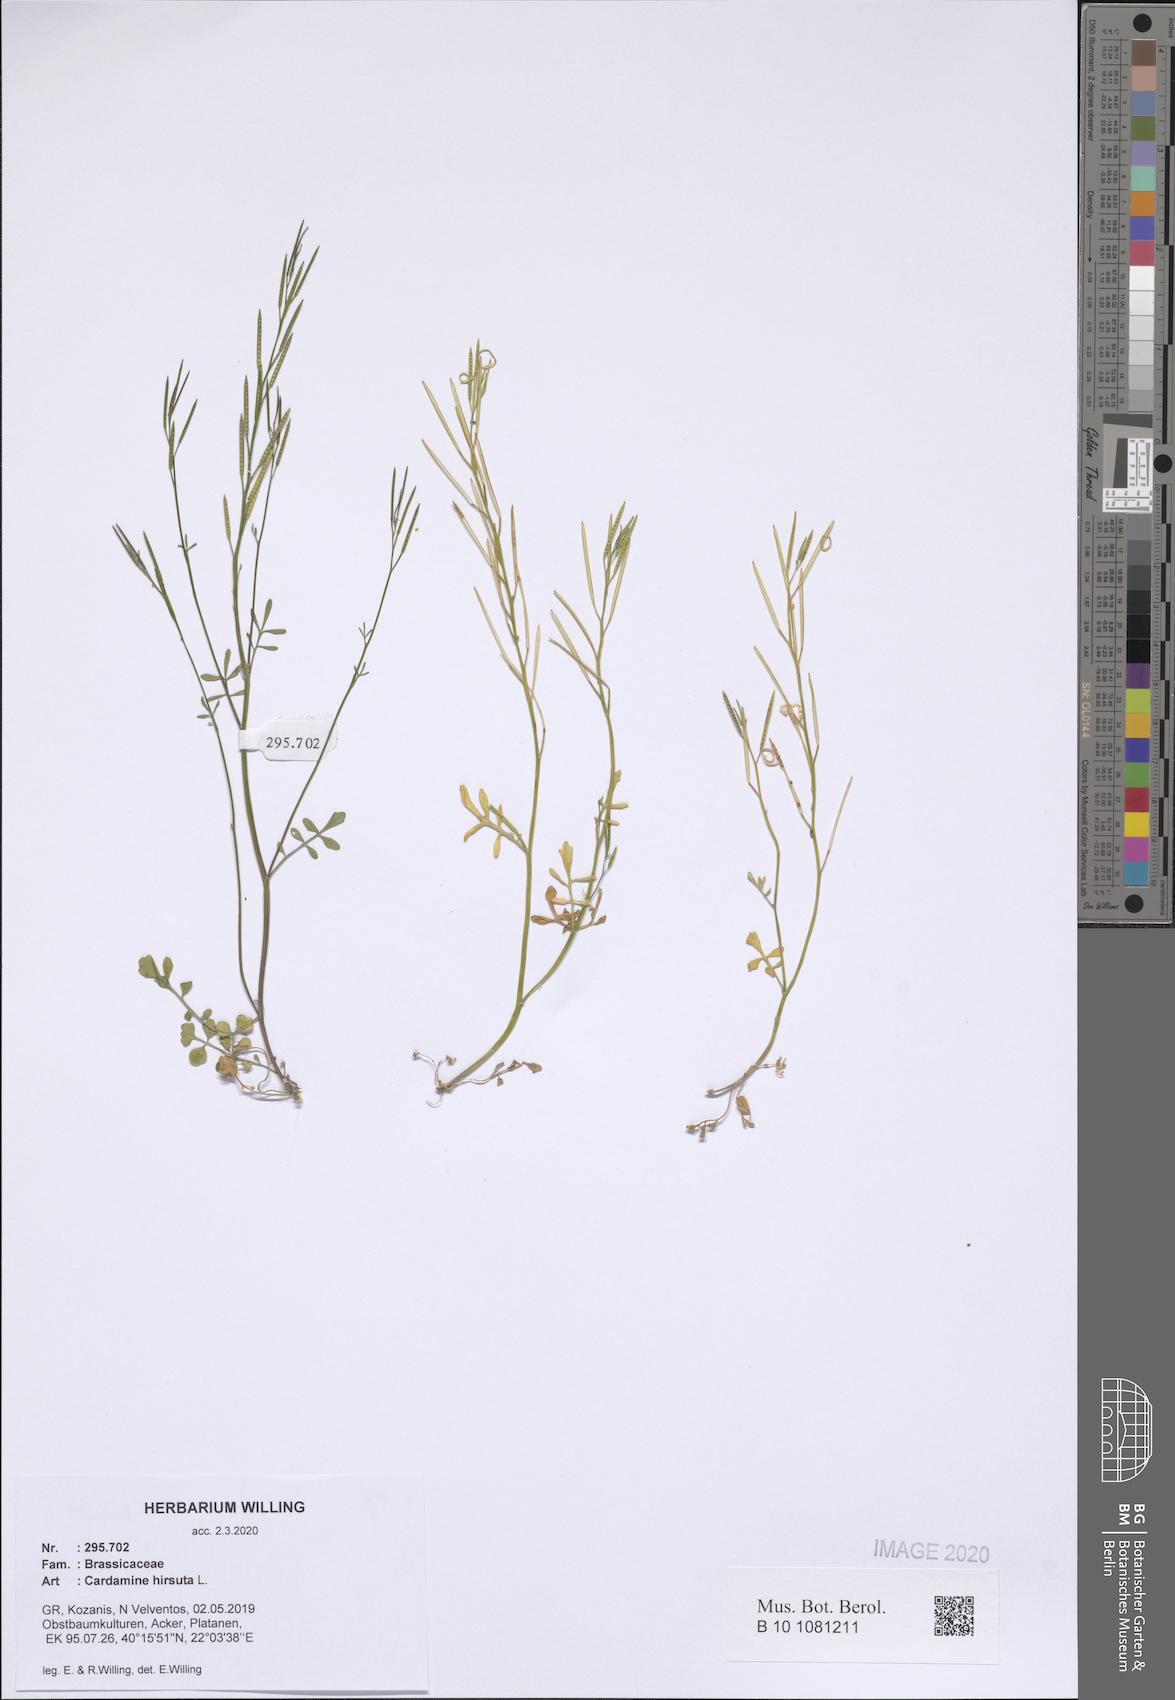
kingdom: Plantae
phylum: Tracheophyta
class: Magnoliopsida
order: Brassicales
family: Brassicaceae
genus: Cardamine
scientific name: Cardamine hirsuta
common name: Hairy bittercress
